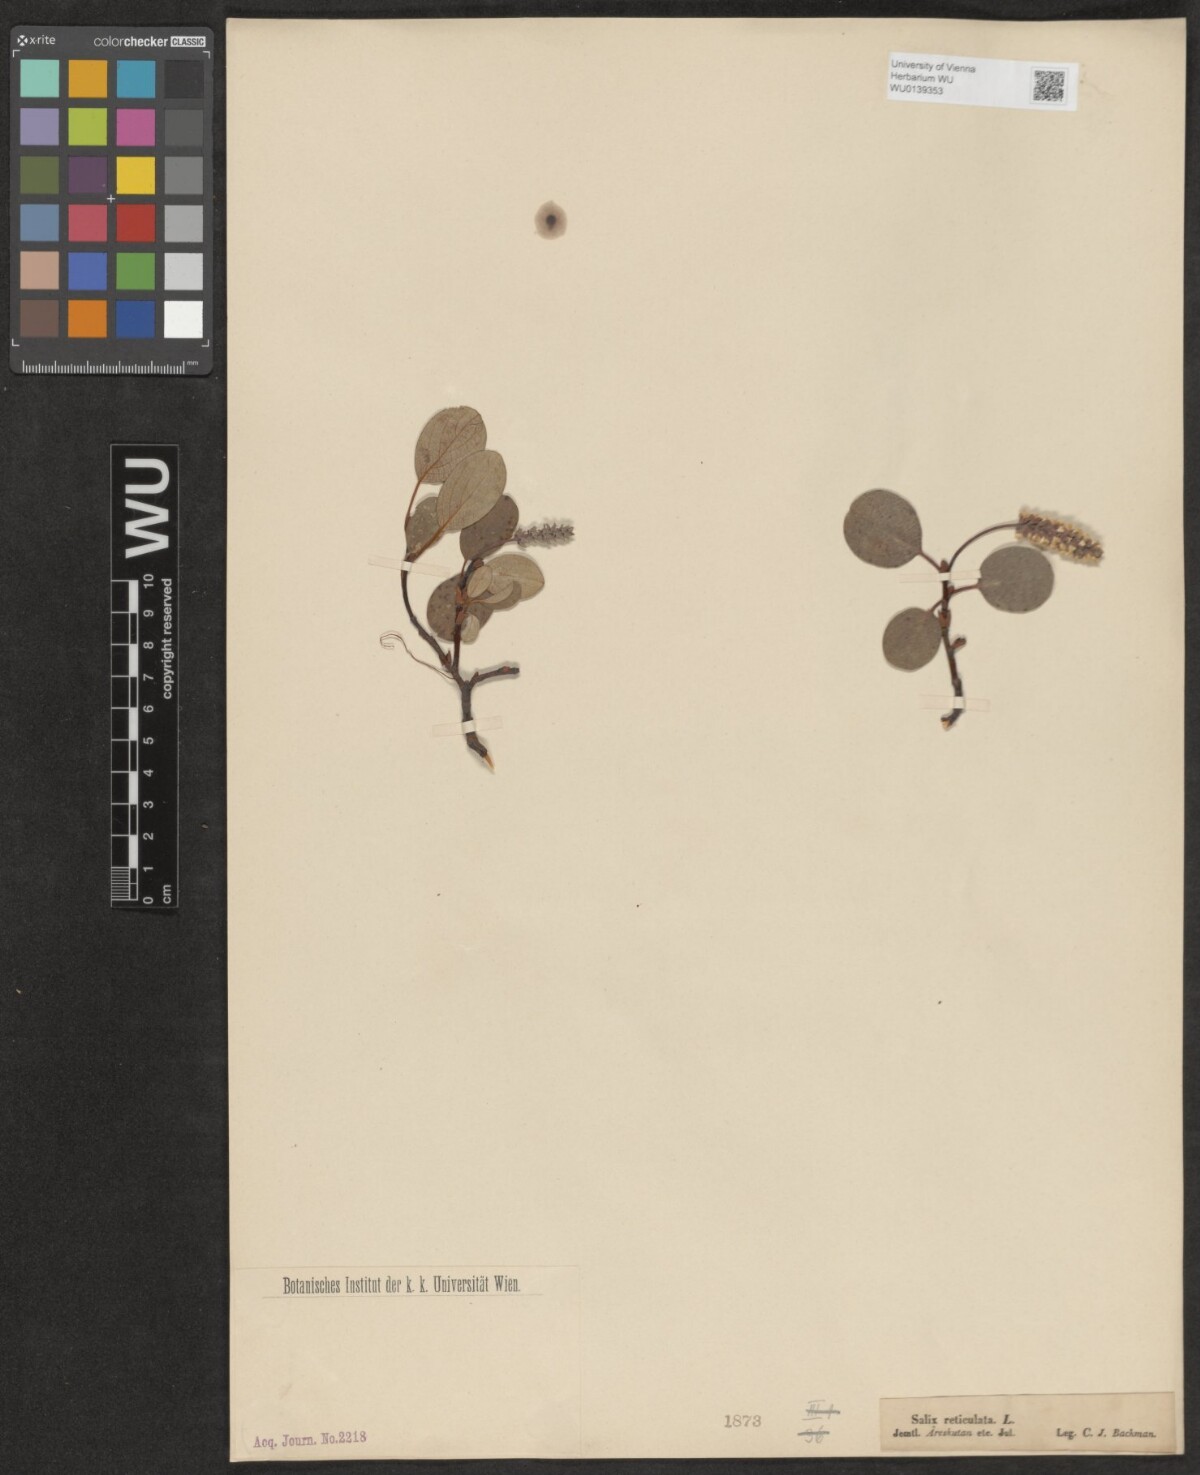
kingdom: Plantae
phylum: Tracheophyta
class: Magnoliopsida
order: Malpighiales
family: Salicaceae
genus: Salix
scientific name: Salix reticulata
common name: Net-leaved willow
